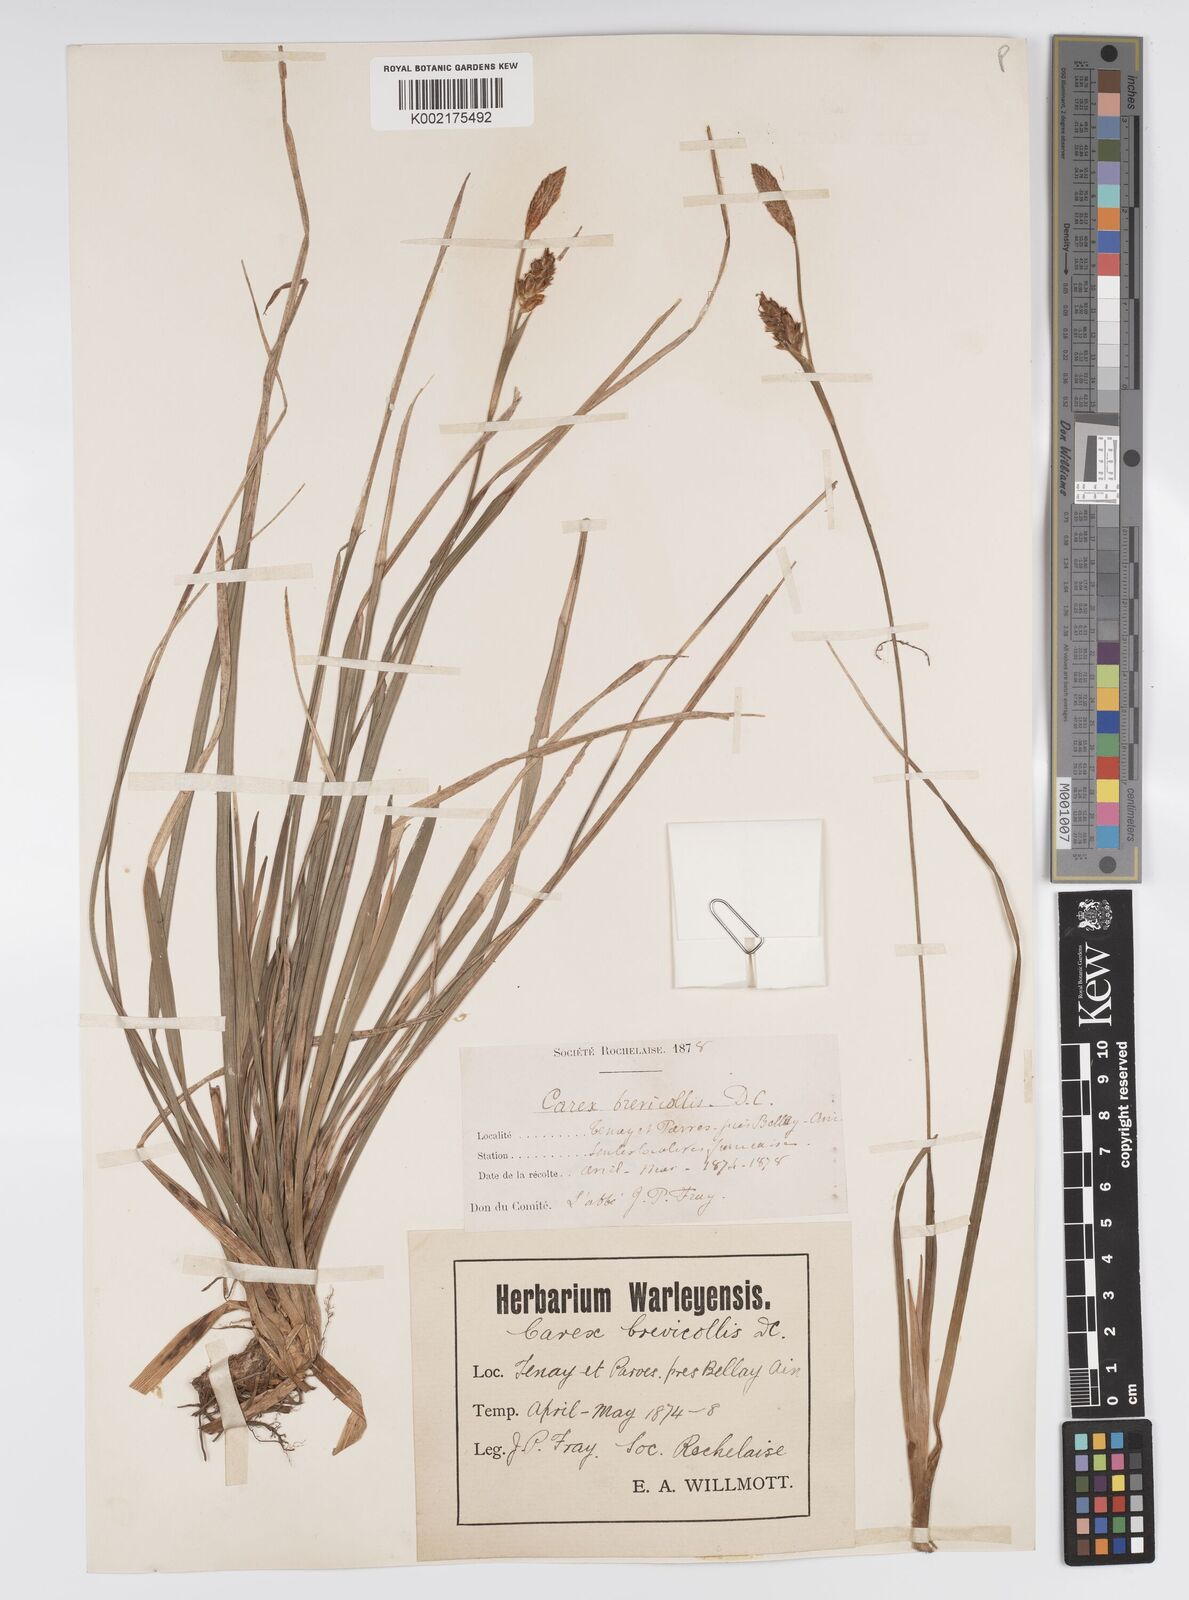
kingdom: Plantae
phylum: Tracheophyta
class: Liliopsida
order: Poales
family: Cyperaceae
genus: Carex
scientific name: Carex brevicollis
